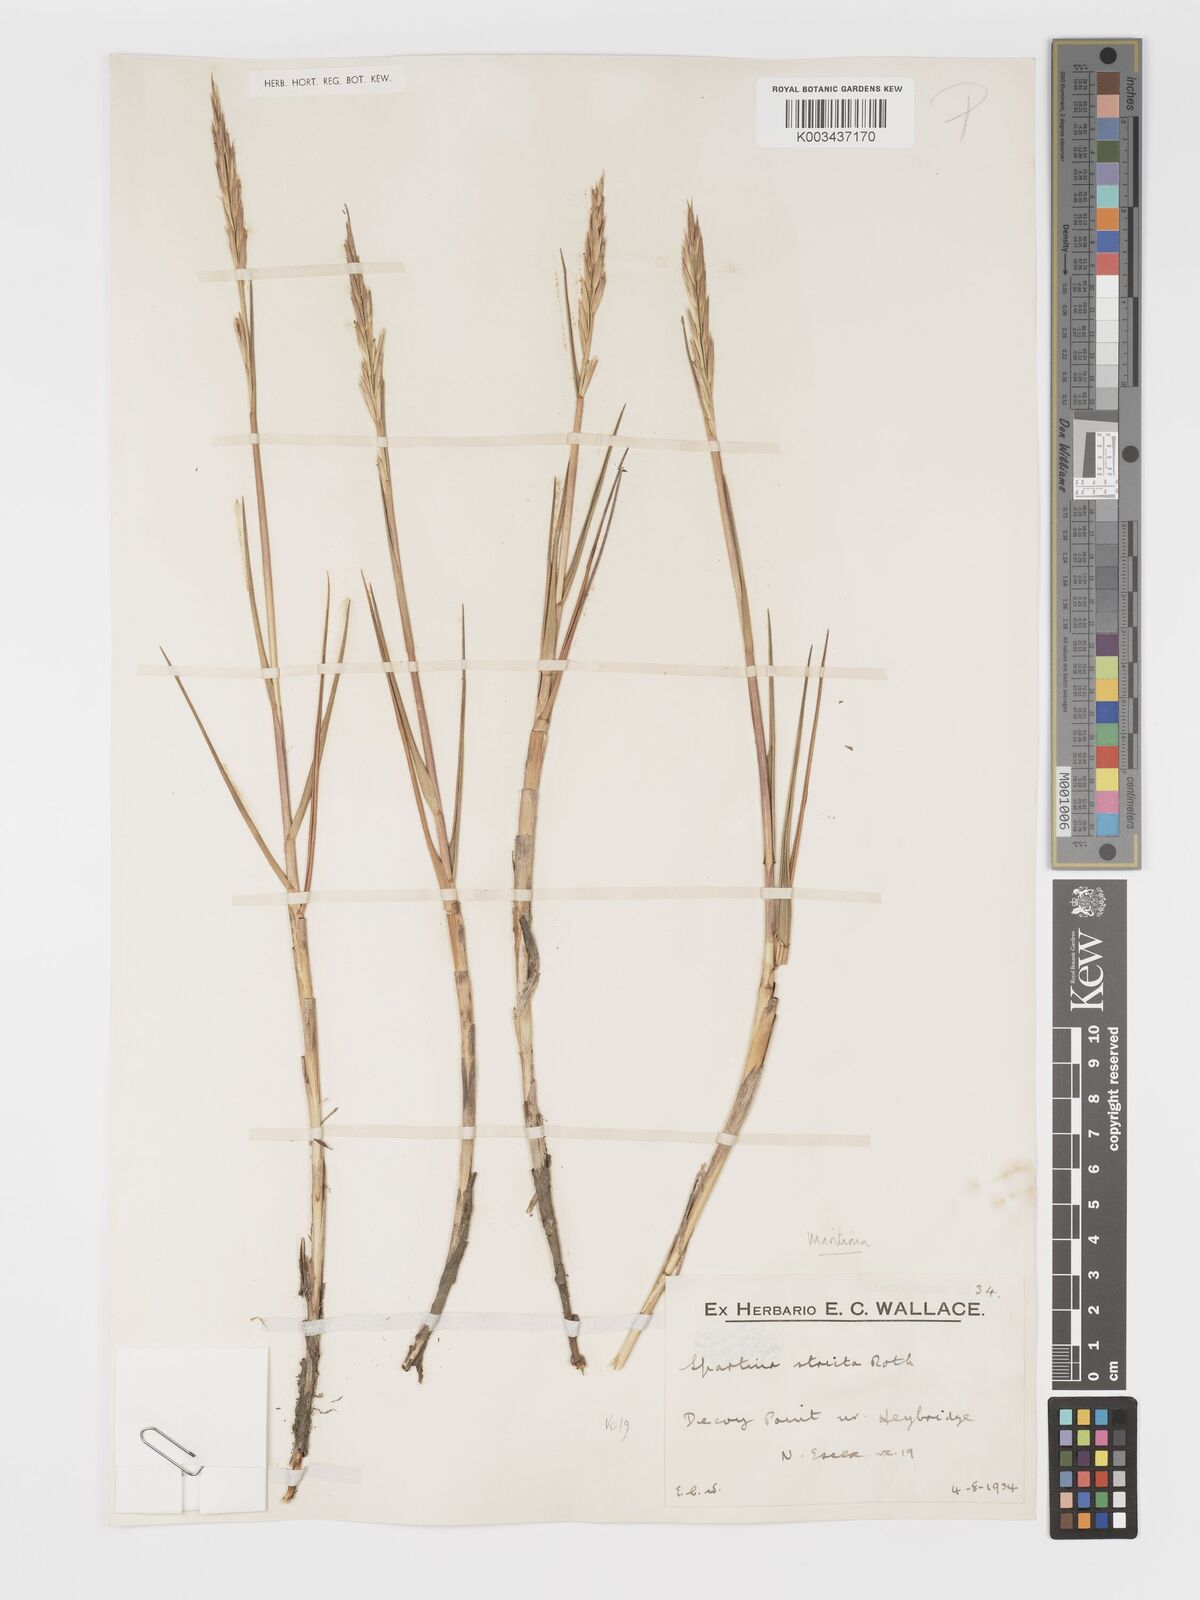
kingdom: Plantae
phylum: Tracheophyta
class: Liliopsida
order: Poales
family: Poaceae
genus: Sporobolus
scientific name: Sporobolus maritimus
